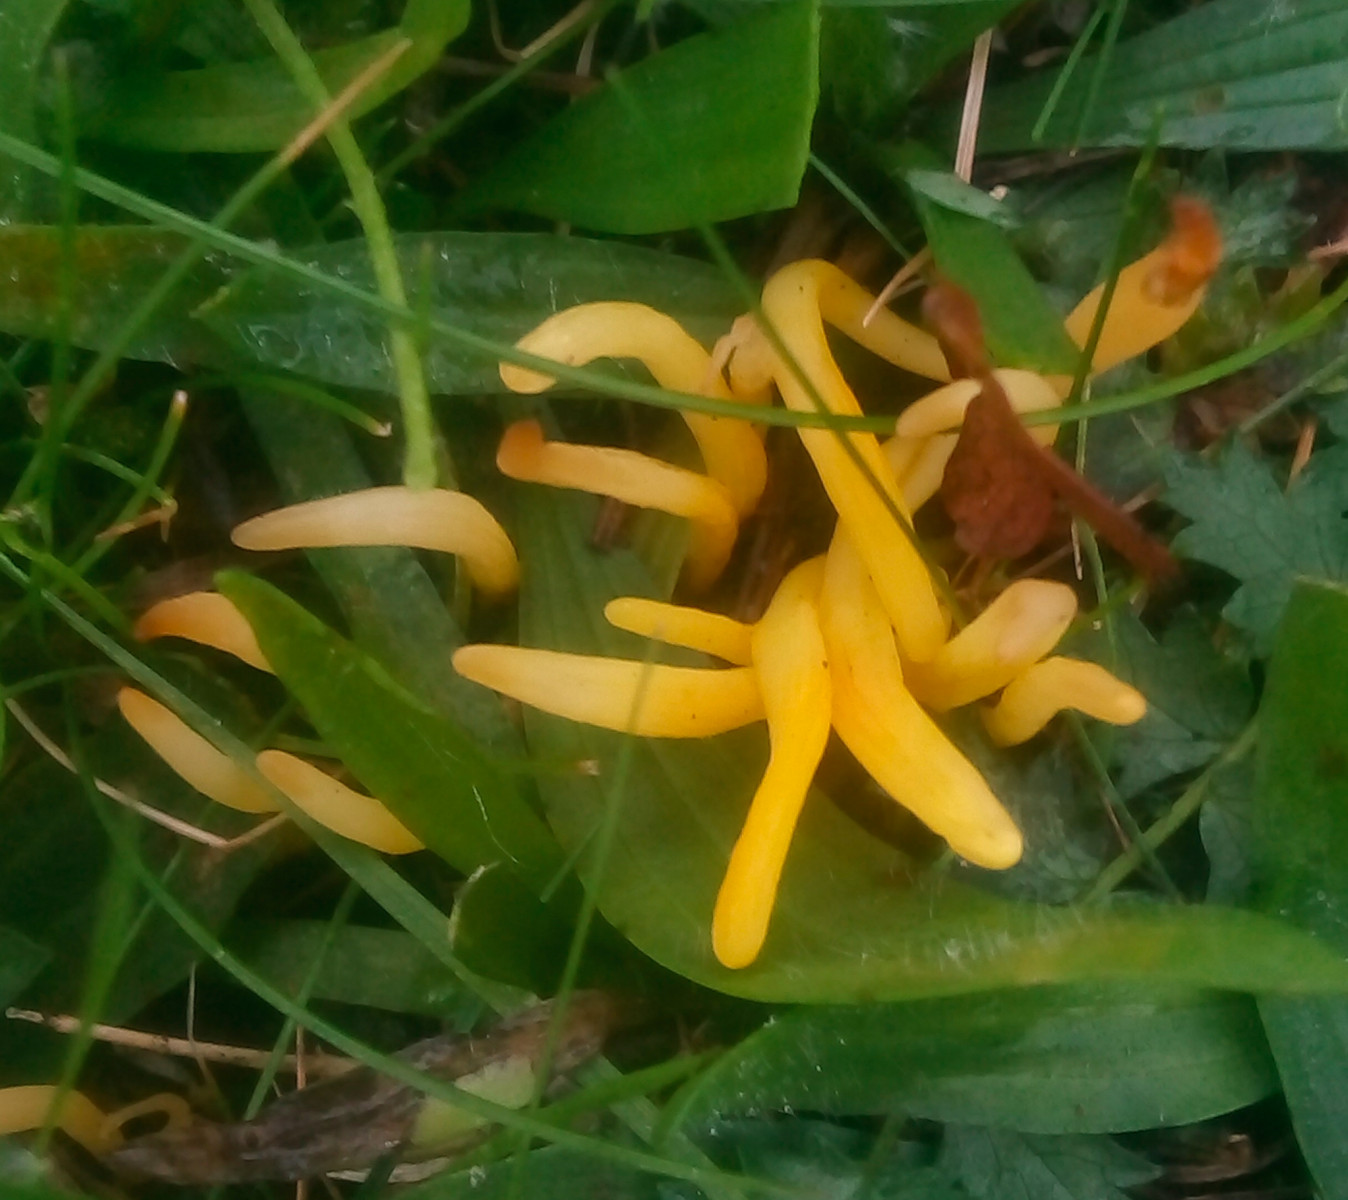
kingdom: Fungi
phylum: Basidiomycota
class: Agaricomycetes
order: Agaricales
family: Clavariaceae
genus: Clavulinopsis
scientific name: Clavulinopsis laeticolor
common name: flamme-køllesvamp
